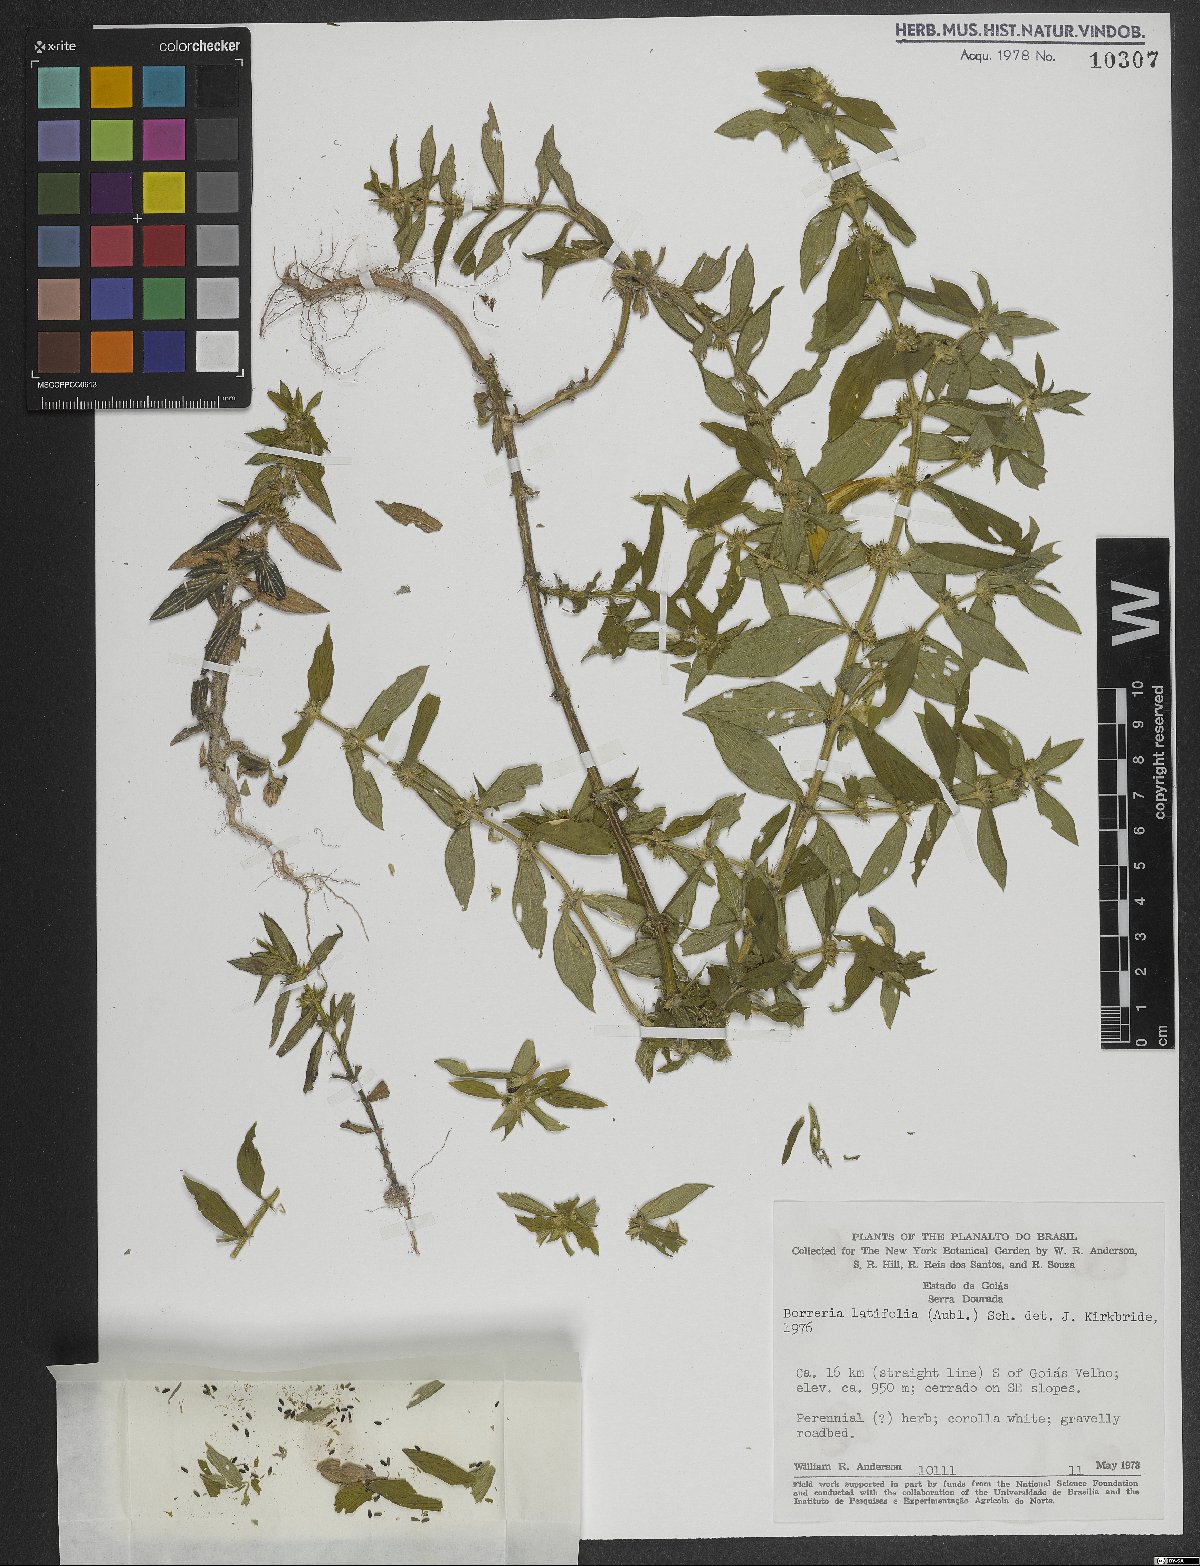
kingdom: Plantae
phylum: Tracheophyta
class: Magnoliopsida
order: Gentianales
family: Rubiaceae
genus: Spermacoce
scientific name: Spermacoce latifolia
